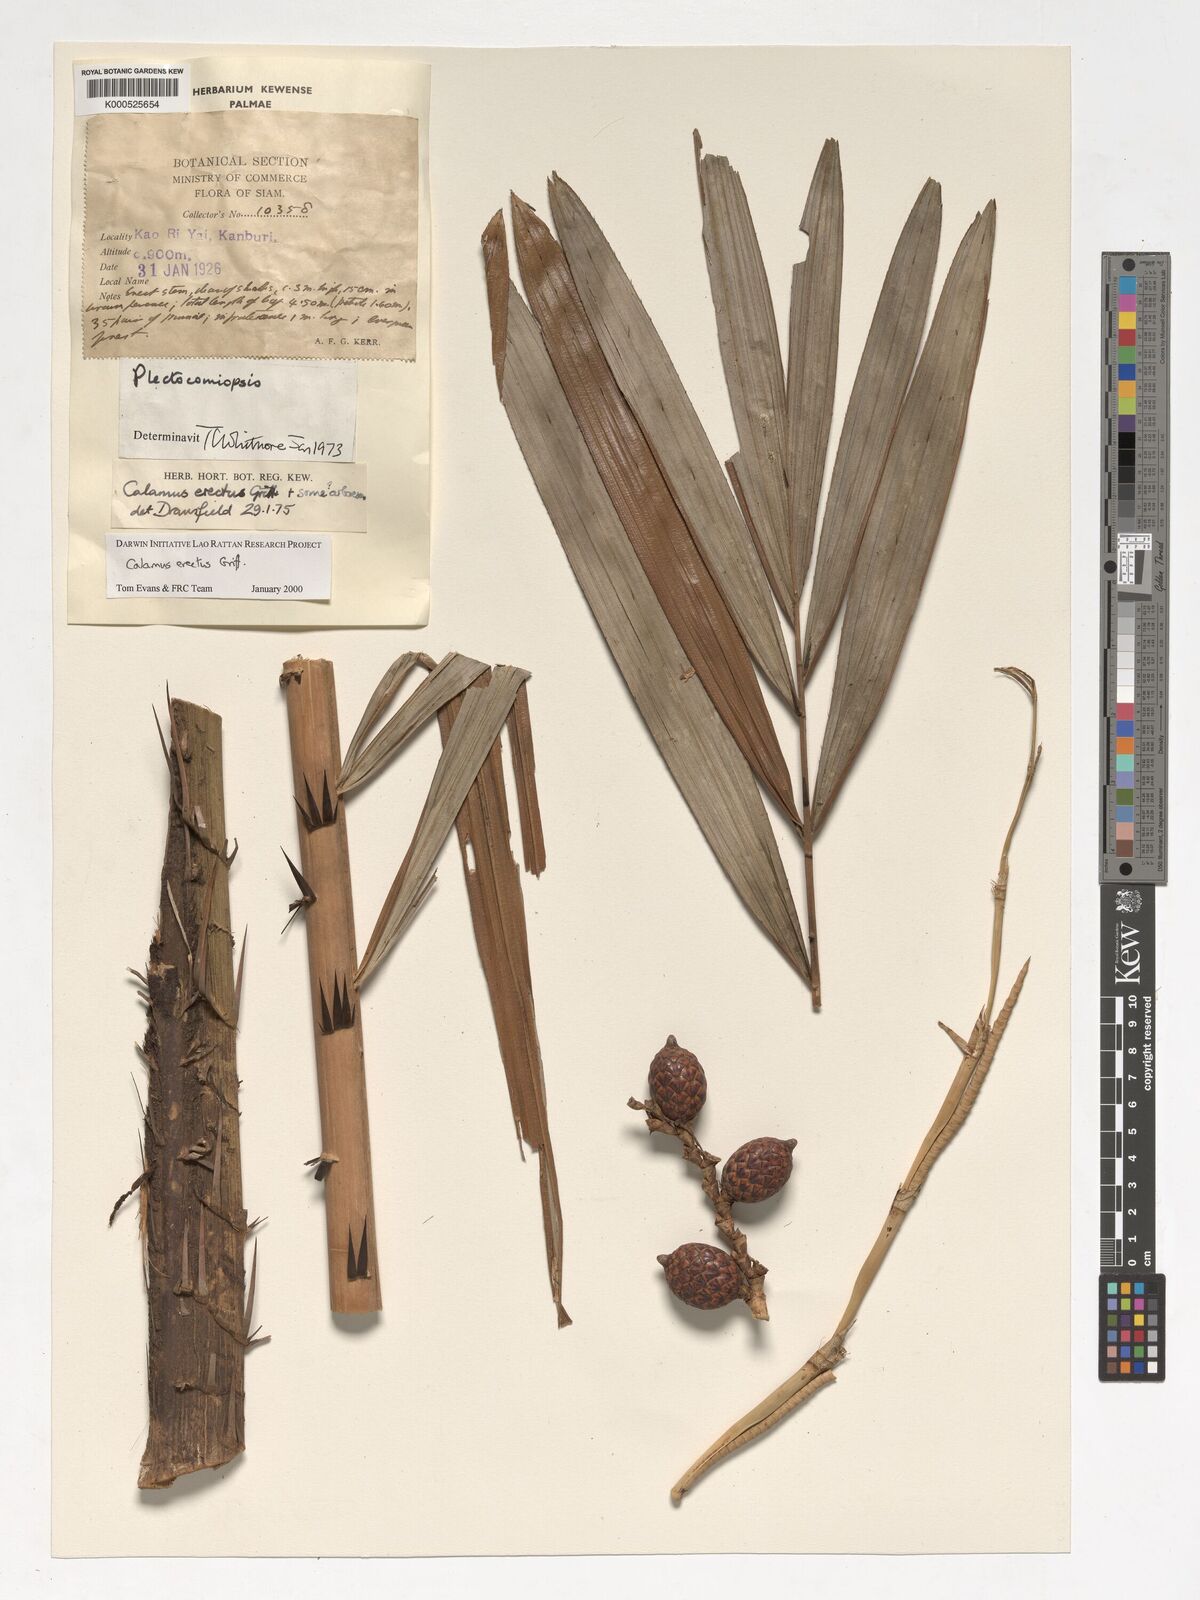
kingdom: Plantae
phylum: Tracheophyta
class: Liliopsida
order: Arecales
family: Arecaceae
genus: Calamus
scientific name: Calamus erectus
